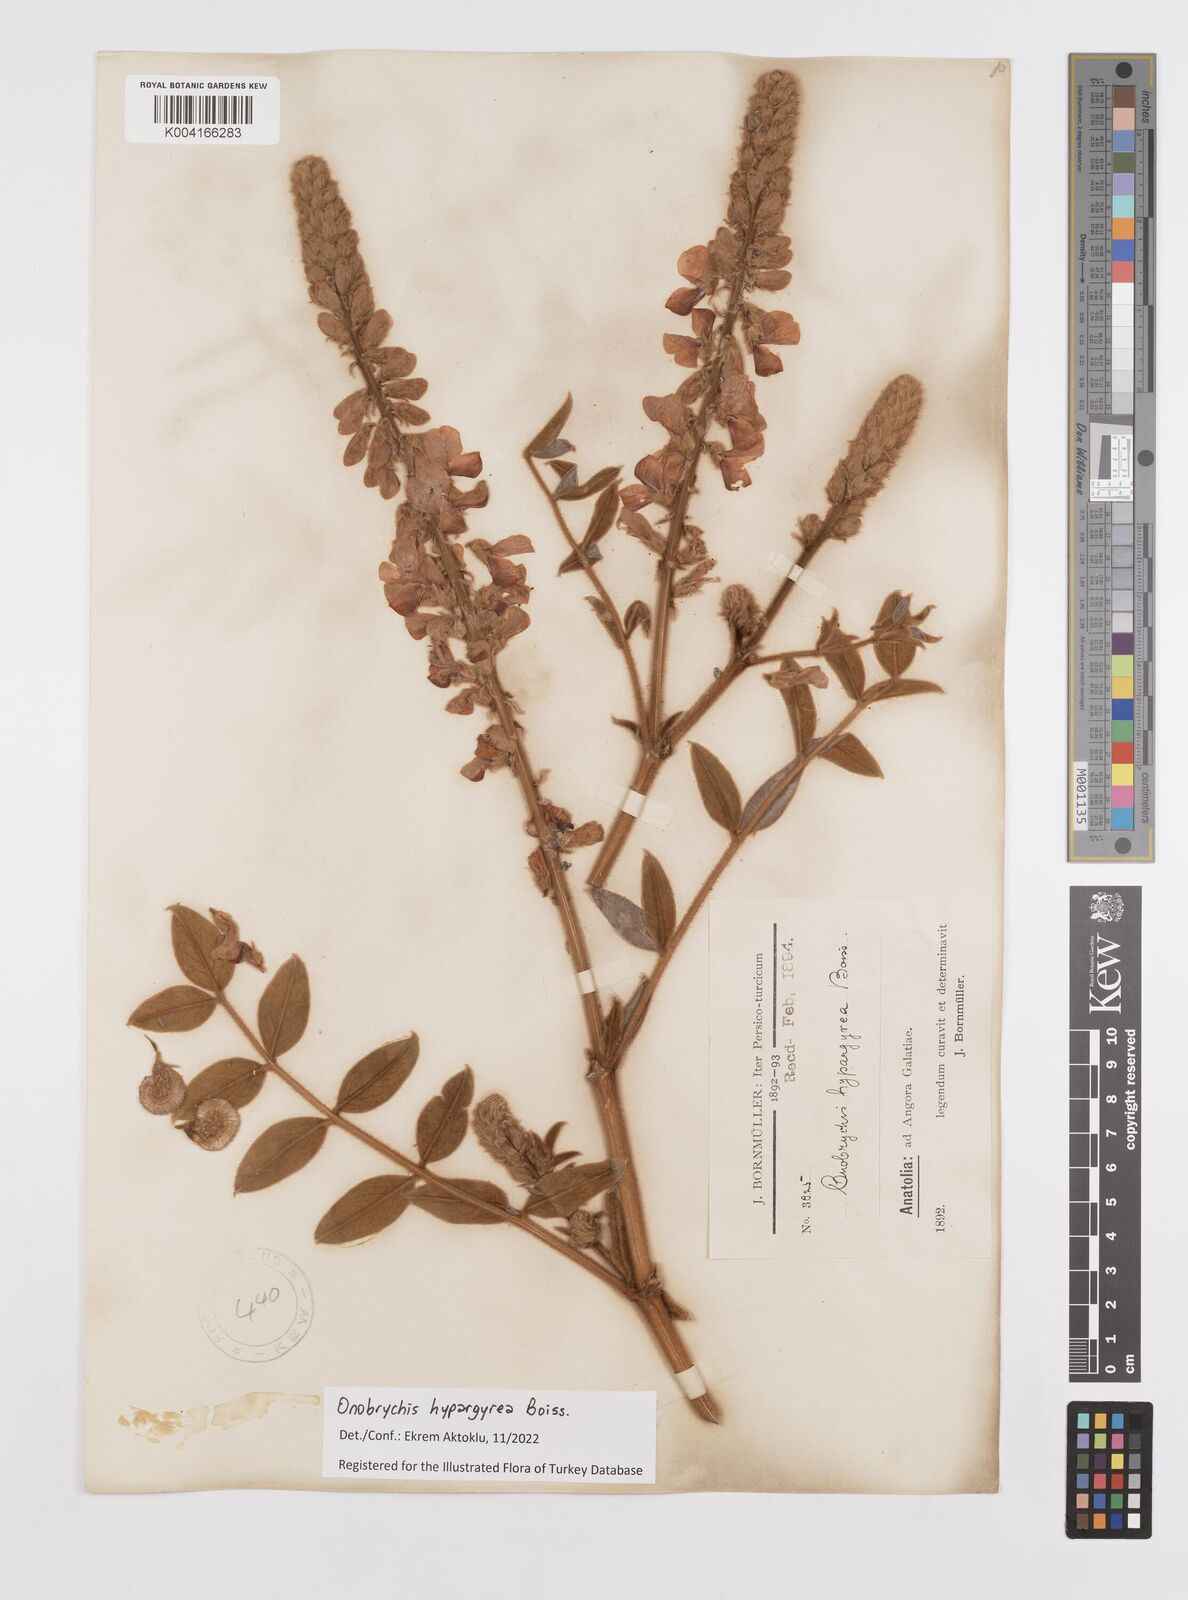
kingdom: Plantae
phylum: Tracheophyta
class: Magnoliopsida
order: Fabales
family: Fabaceae
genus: Onobrychis
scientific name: Onobrychis hypargyrea
